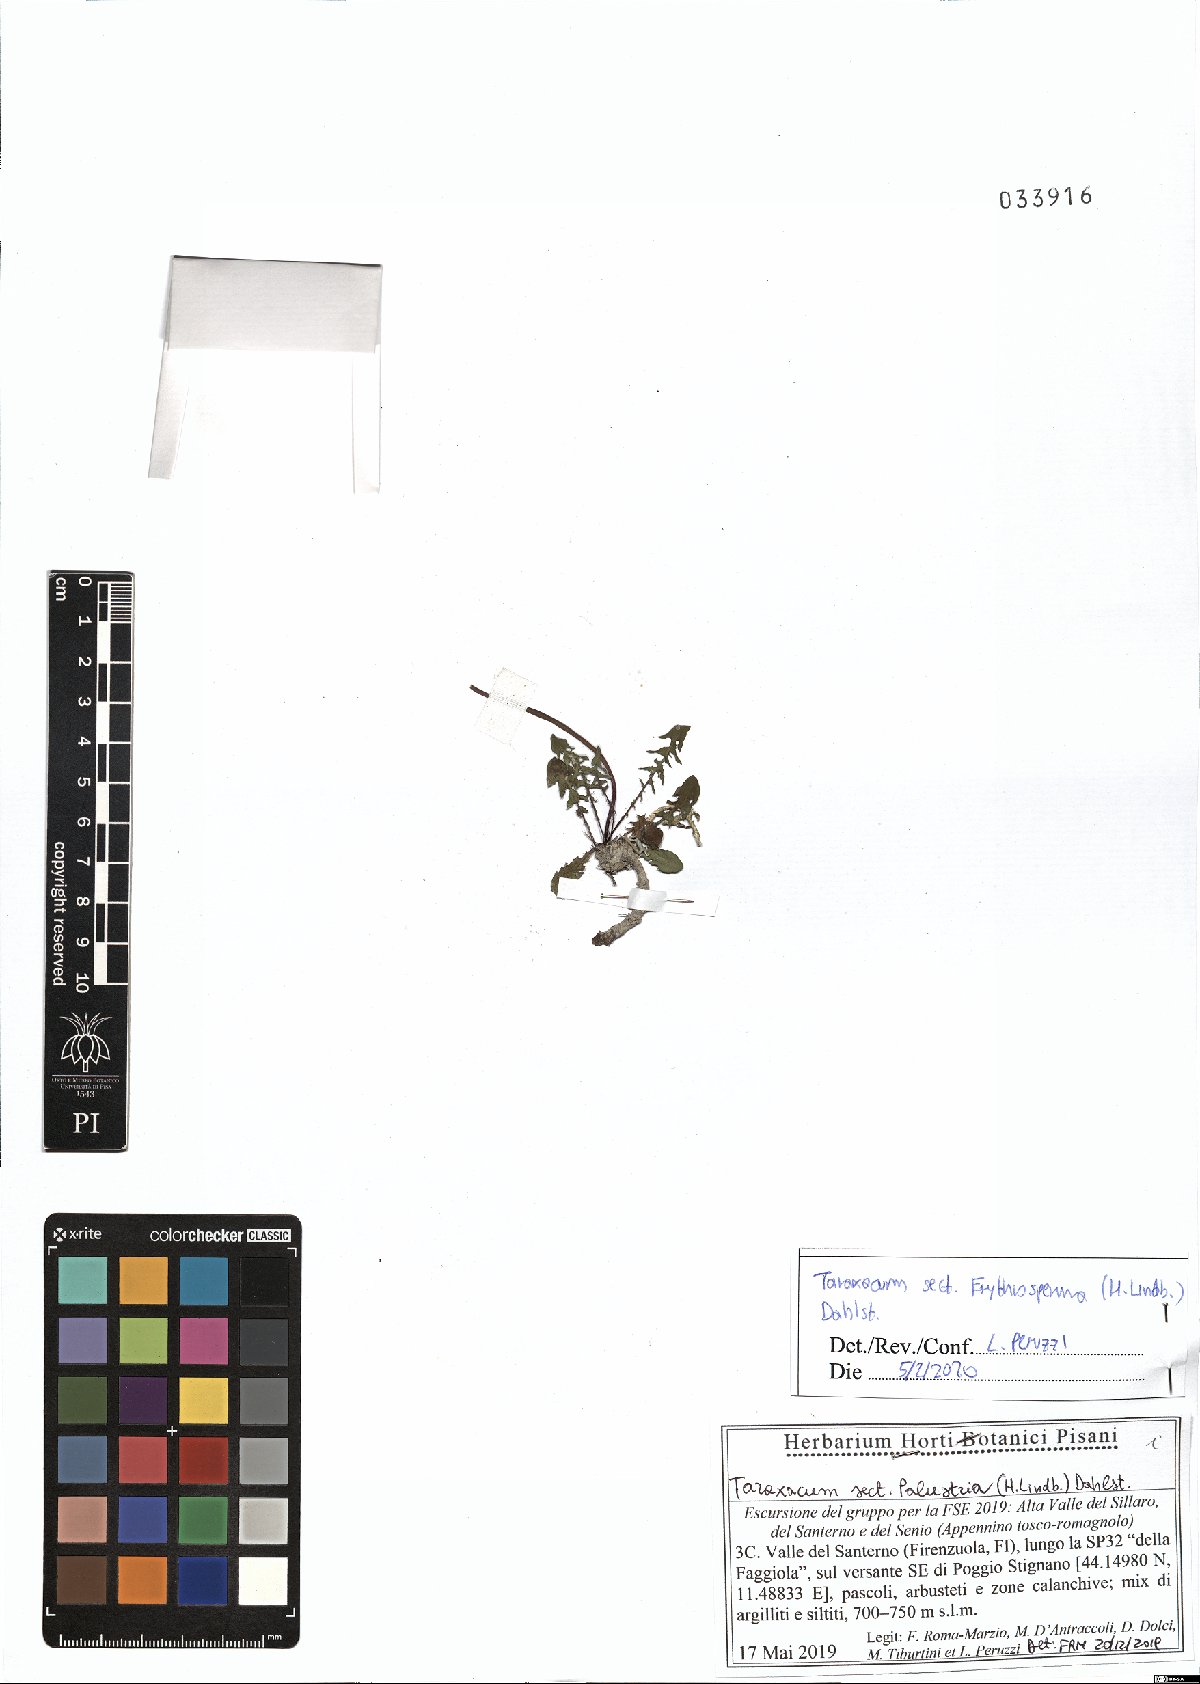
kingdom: Plantae
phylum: Tracheophyta
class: Magnoliopsida
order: Asterales
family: Asteraceae
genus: Taraxacum
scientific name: Taraxacum erythrospermum
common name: Rock dandelion
